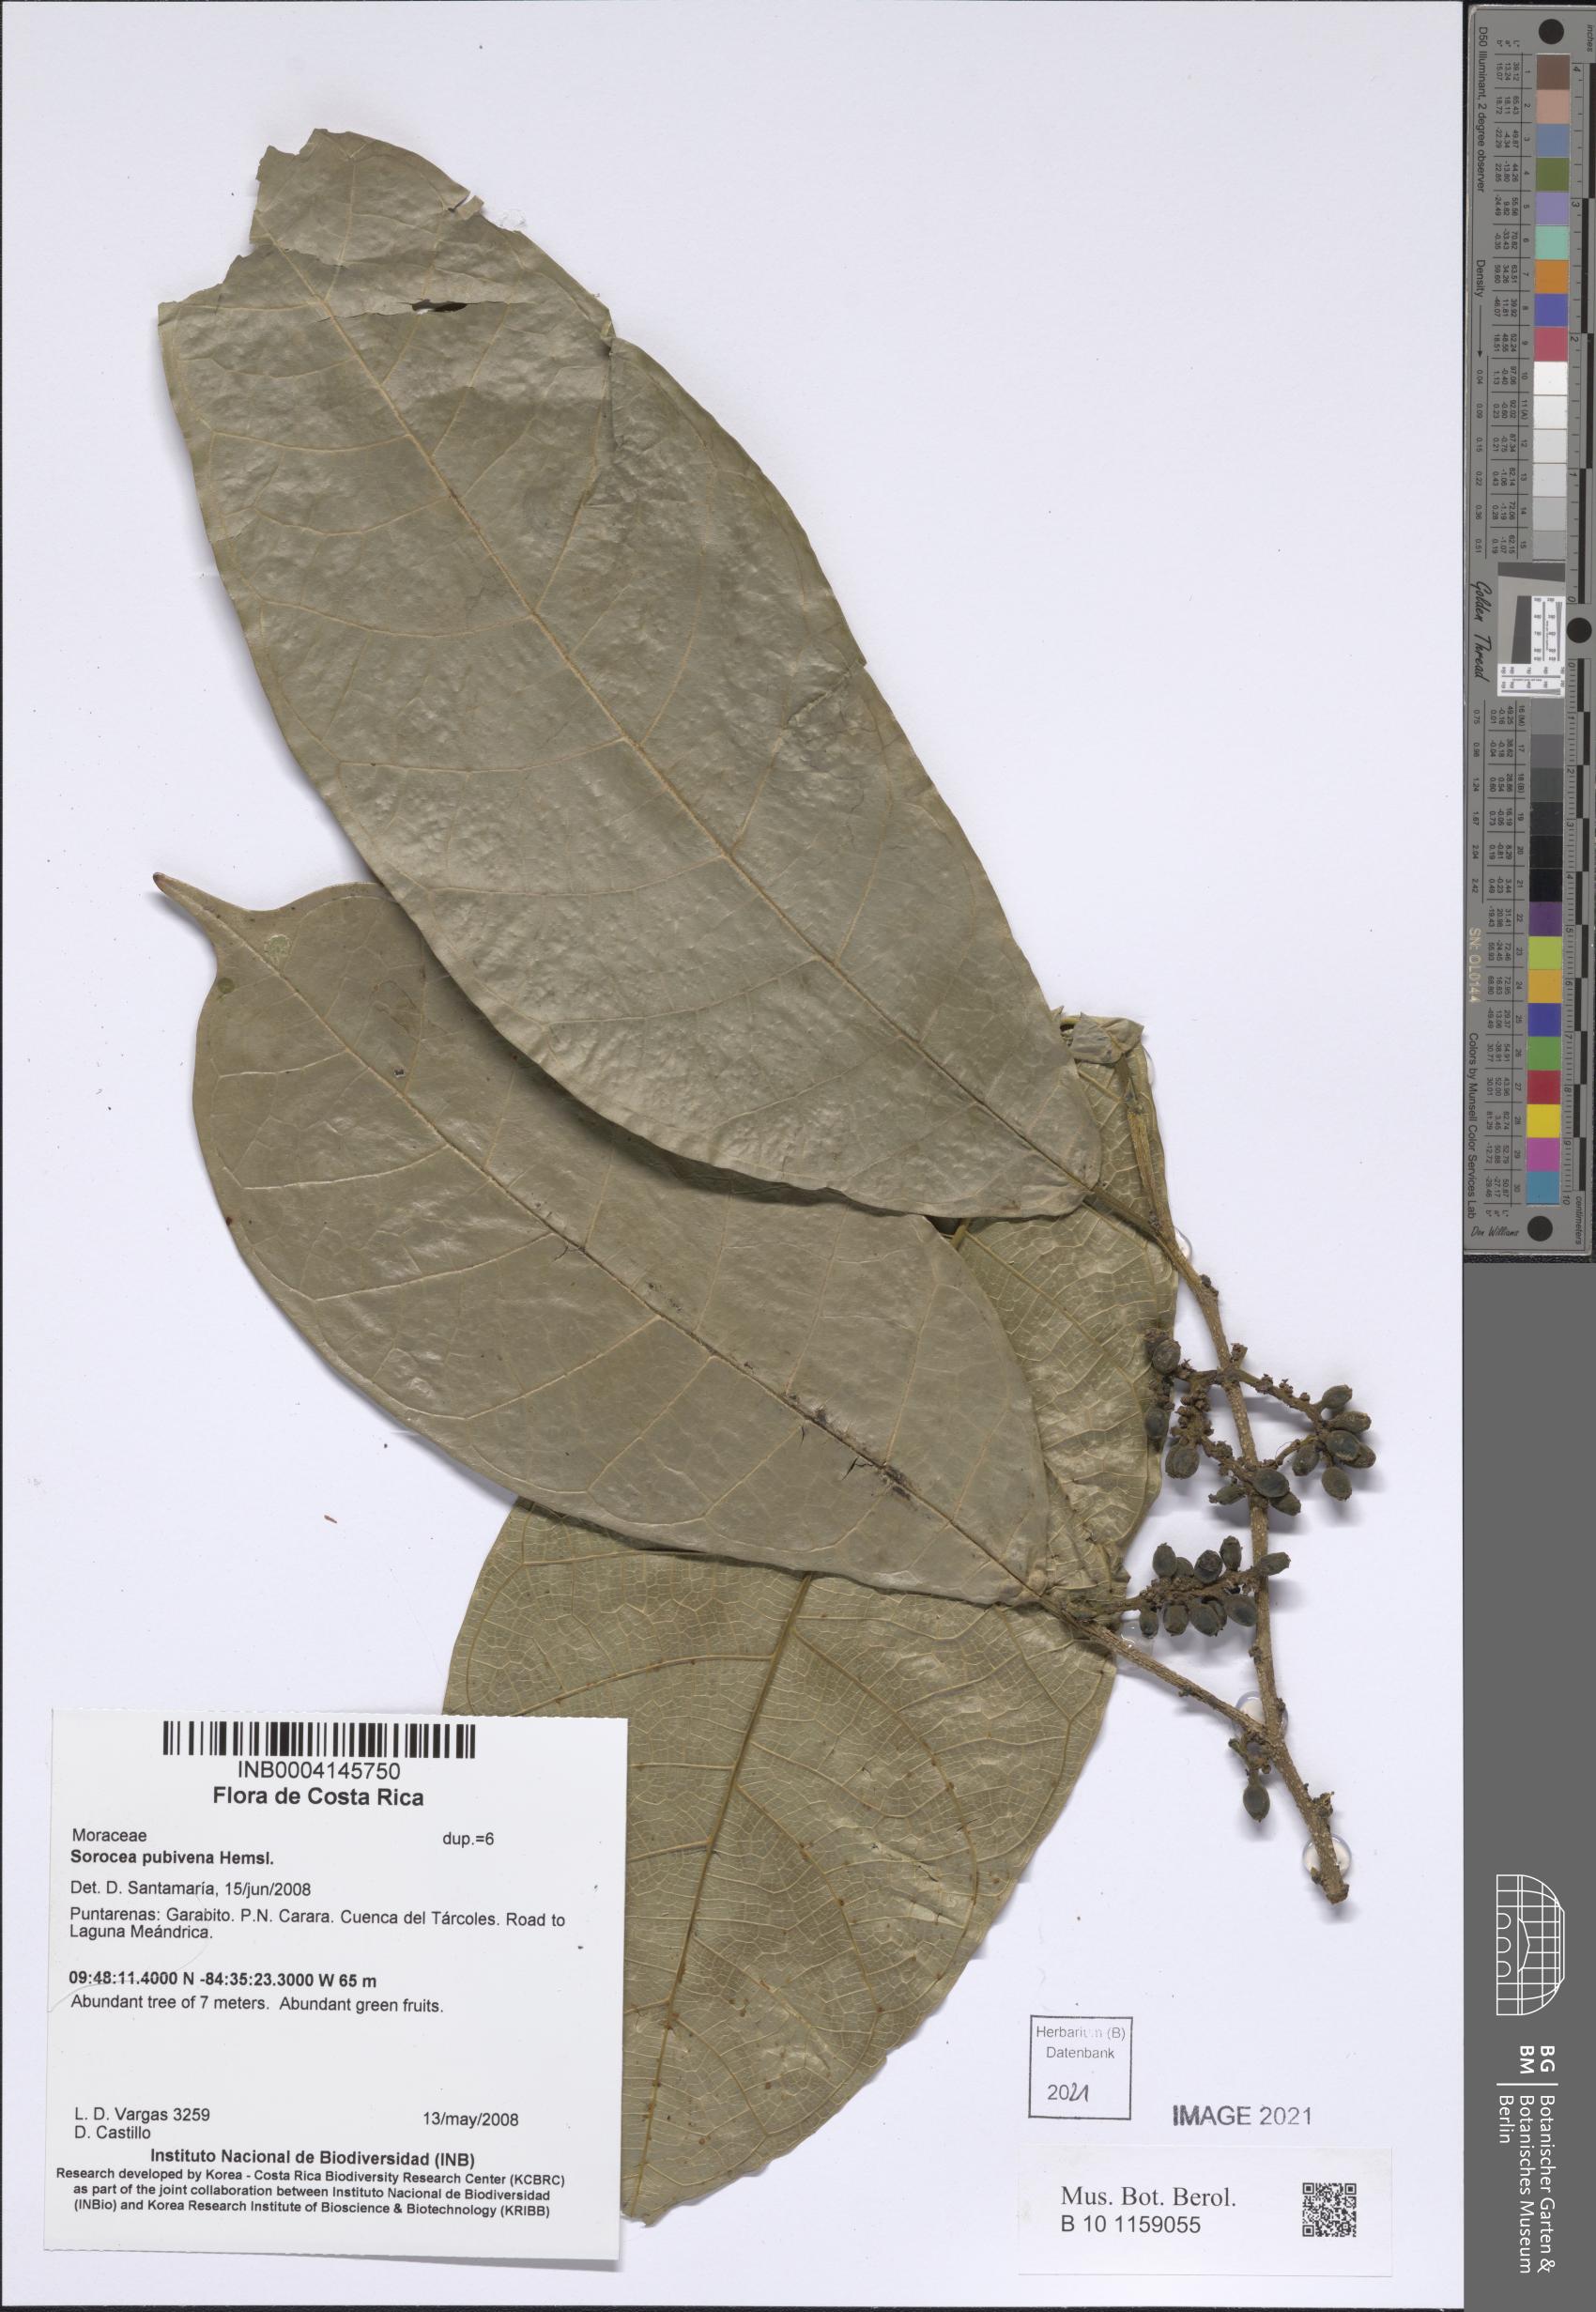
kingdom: Plantae
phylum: Tracheophyta
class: Magnoliopsida
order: Rosales
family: Moraceae
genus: Sorocea
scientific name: Sorocea pubivena
